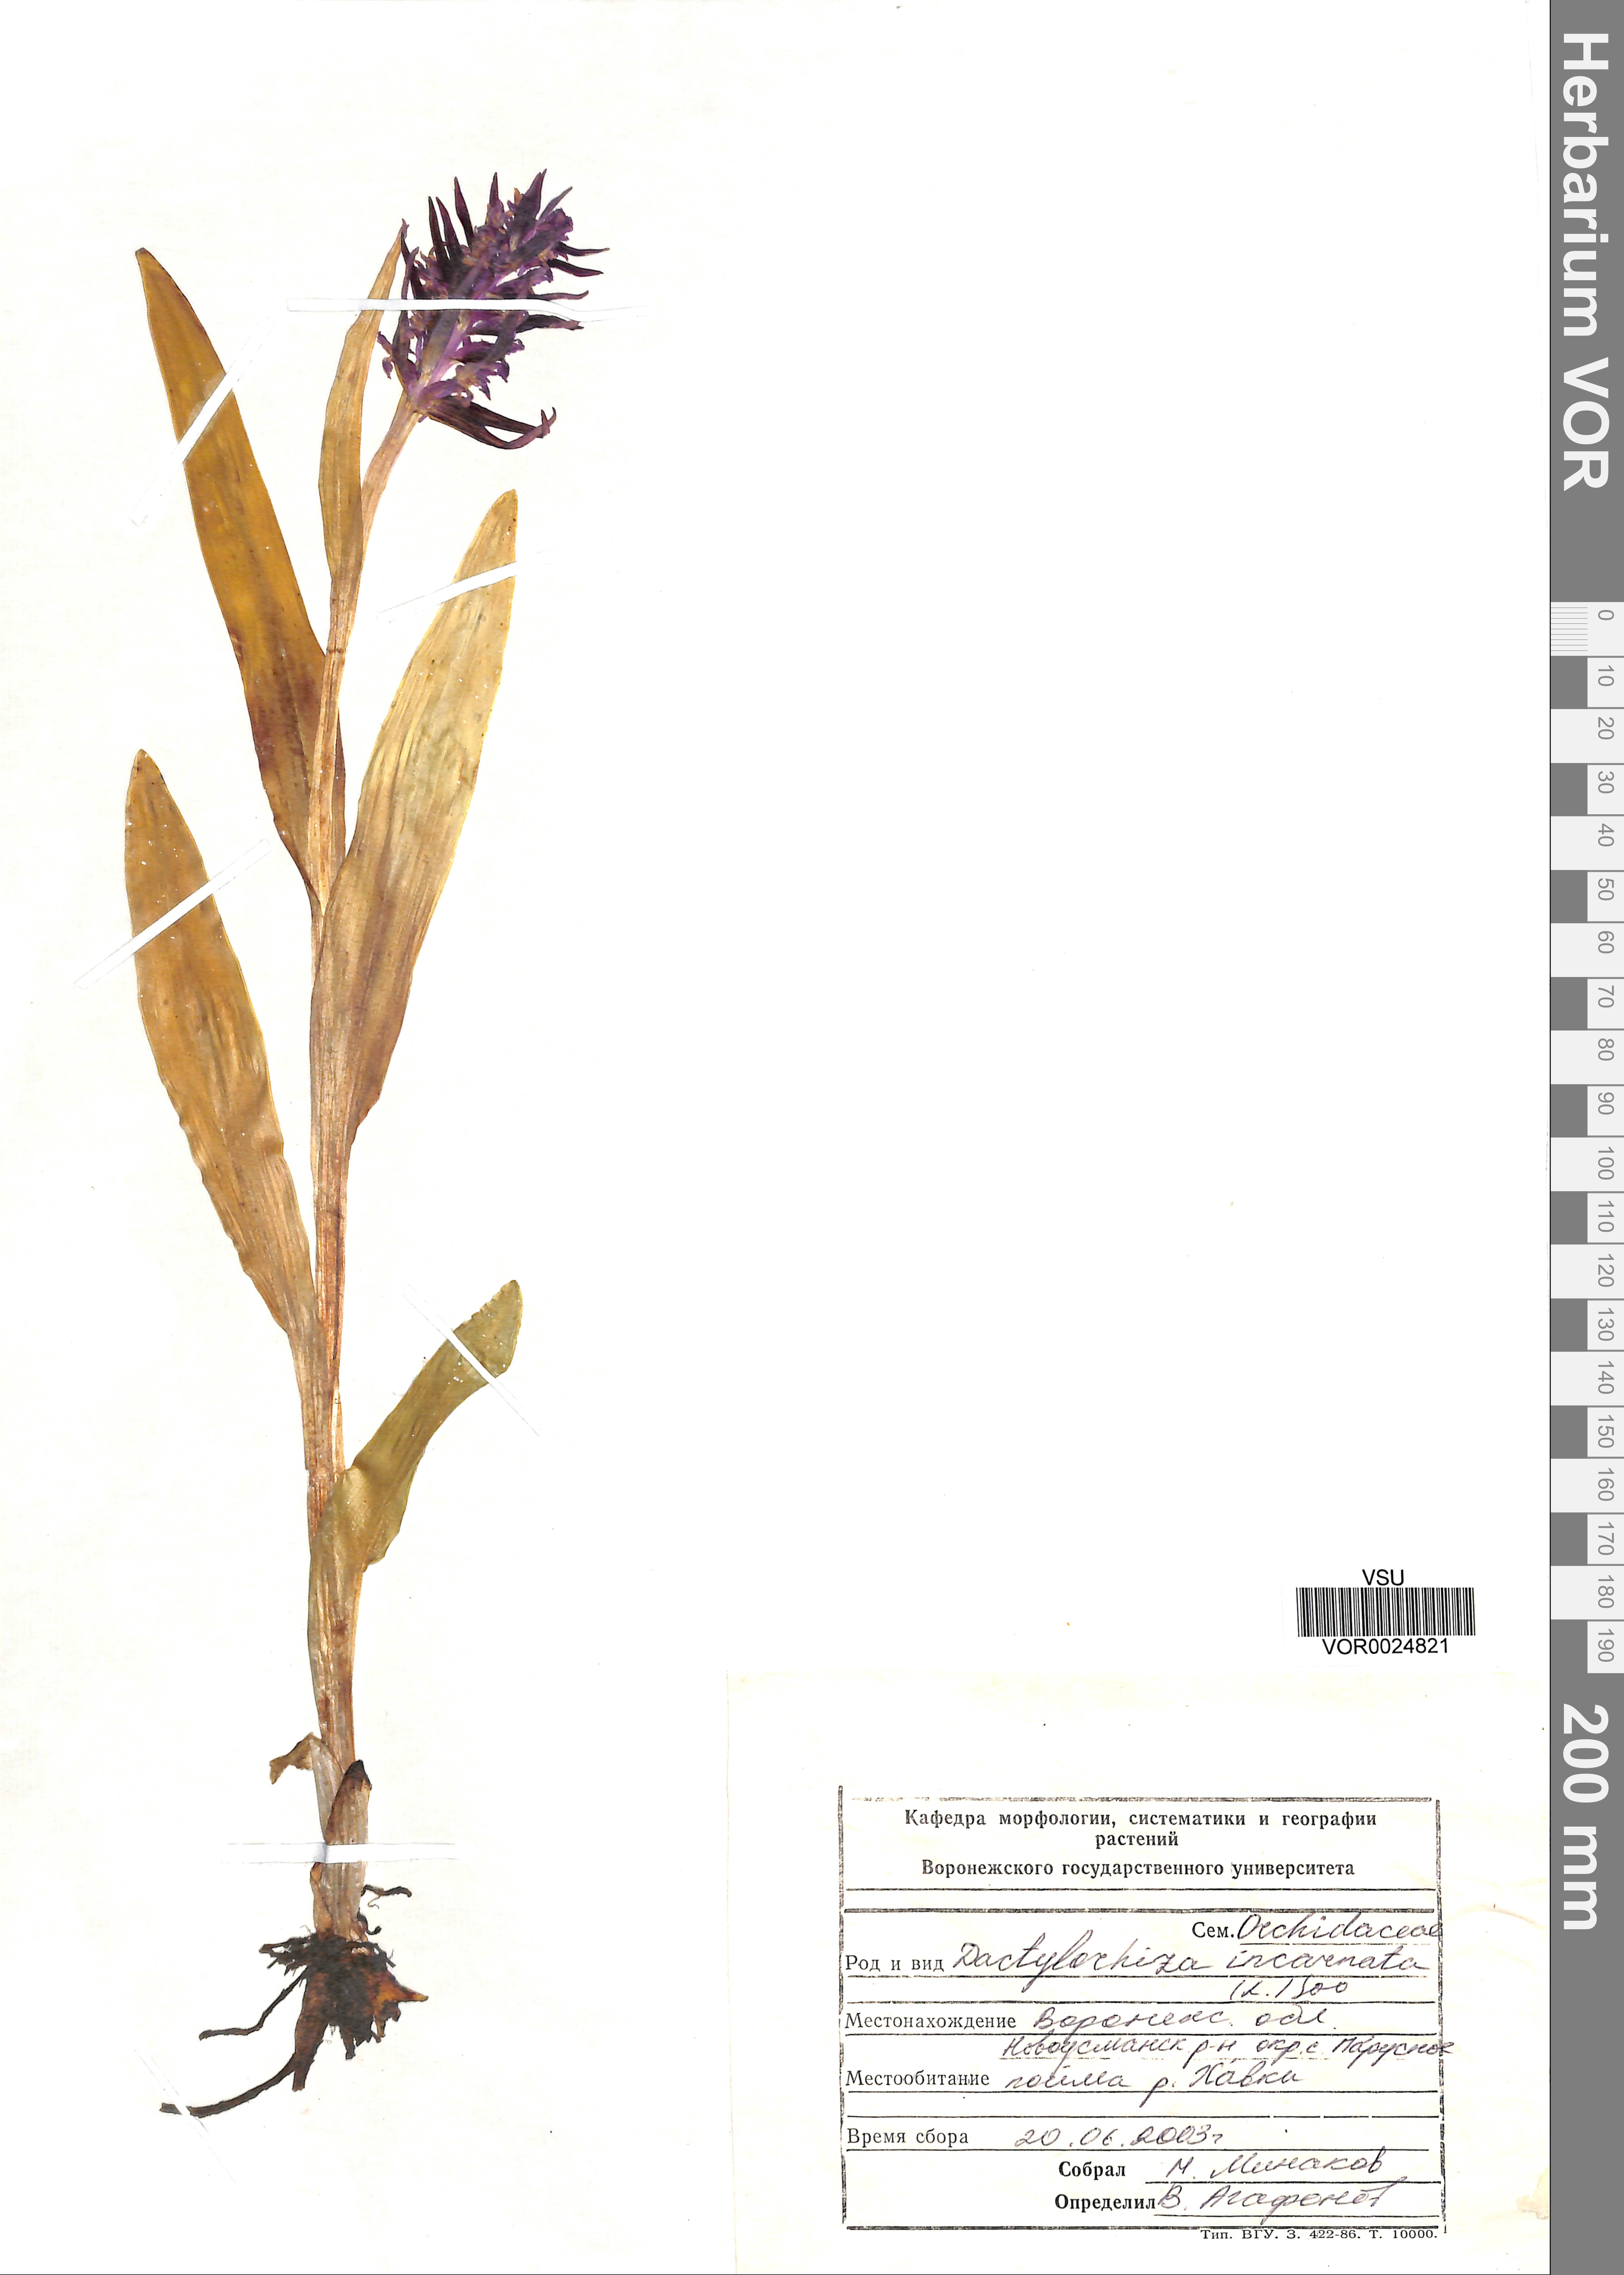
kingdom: Plantae
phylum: Tracheophyta
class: Liliopsida
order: Asparagales
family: Orchidaceae
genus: Dactylorhiza
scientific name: Dactylorhiza incarnata
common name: Early marsh-orchid
